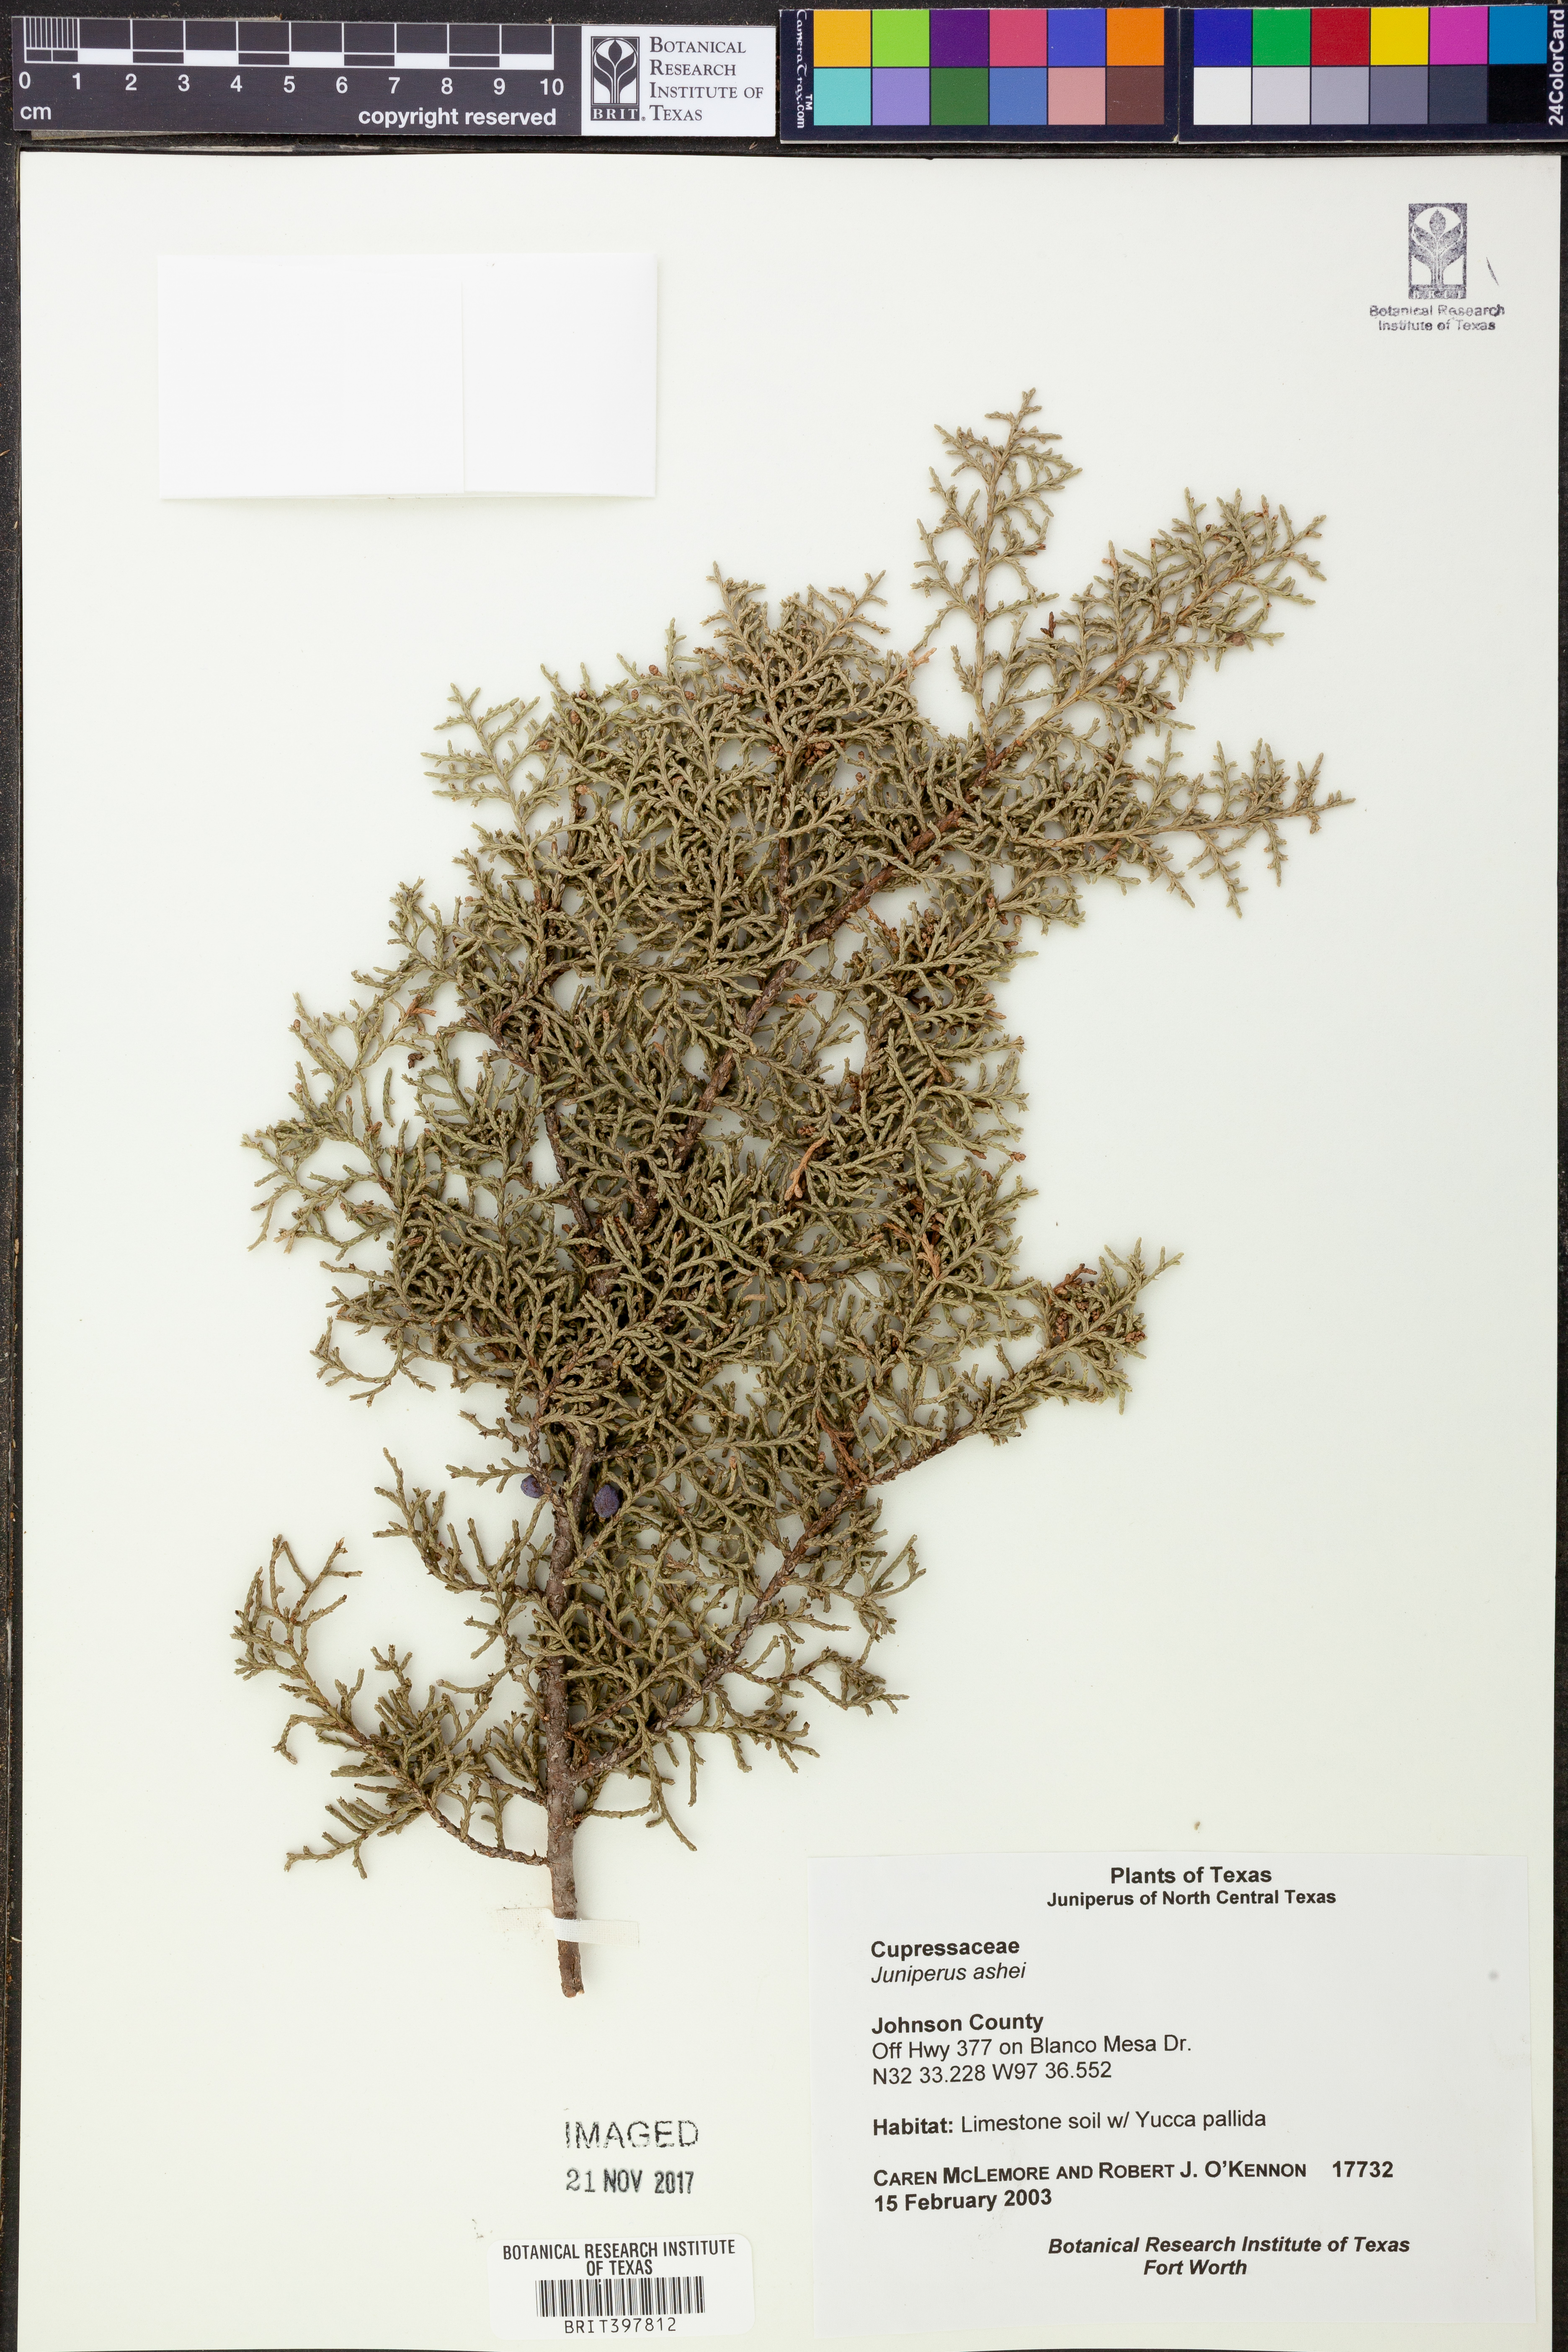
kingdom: Plantae
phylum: Tracheophyta
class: Pinopsida
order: Pinales
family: Cupressaceae
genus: Juniperus
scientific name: Juniperus ashei
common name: Mexican juniper
